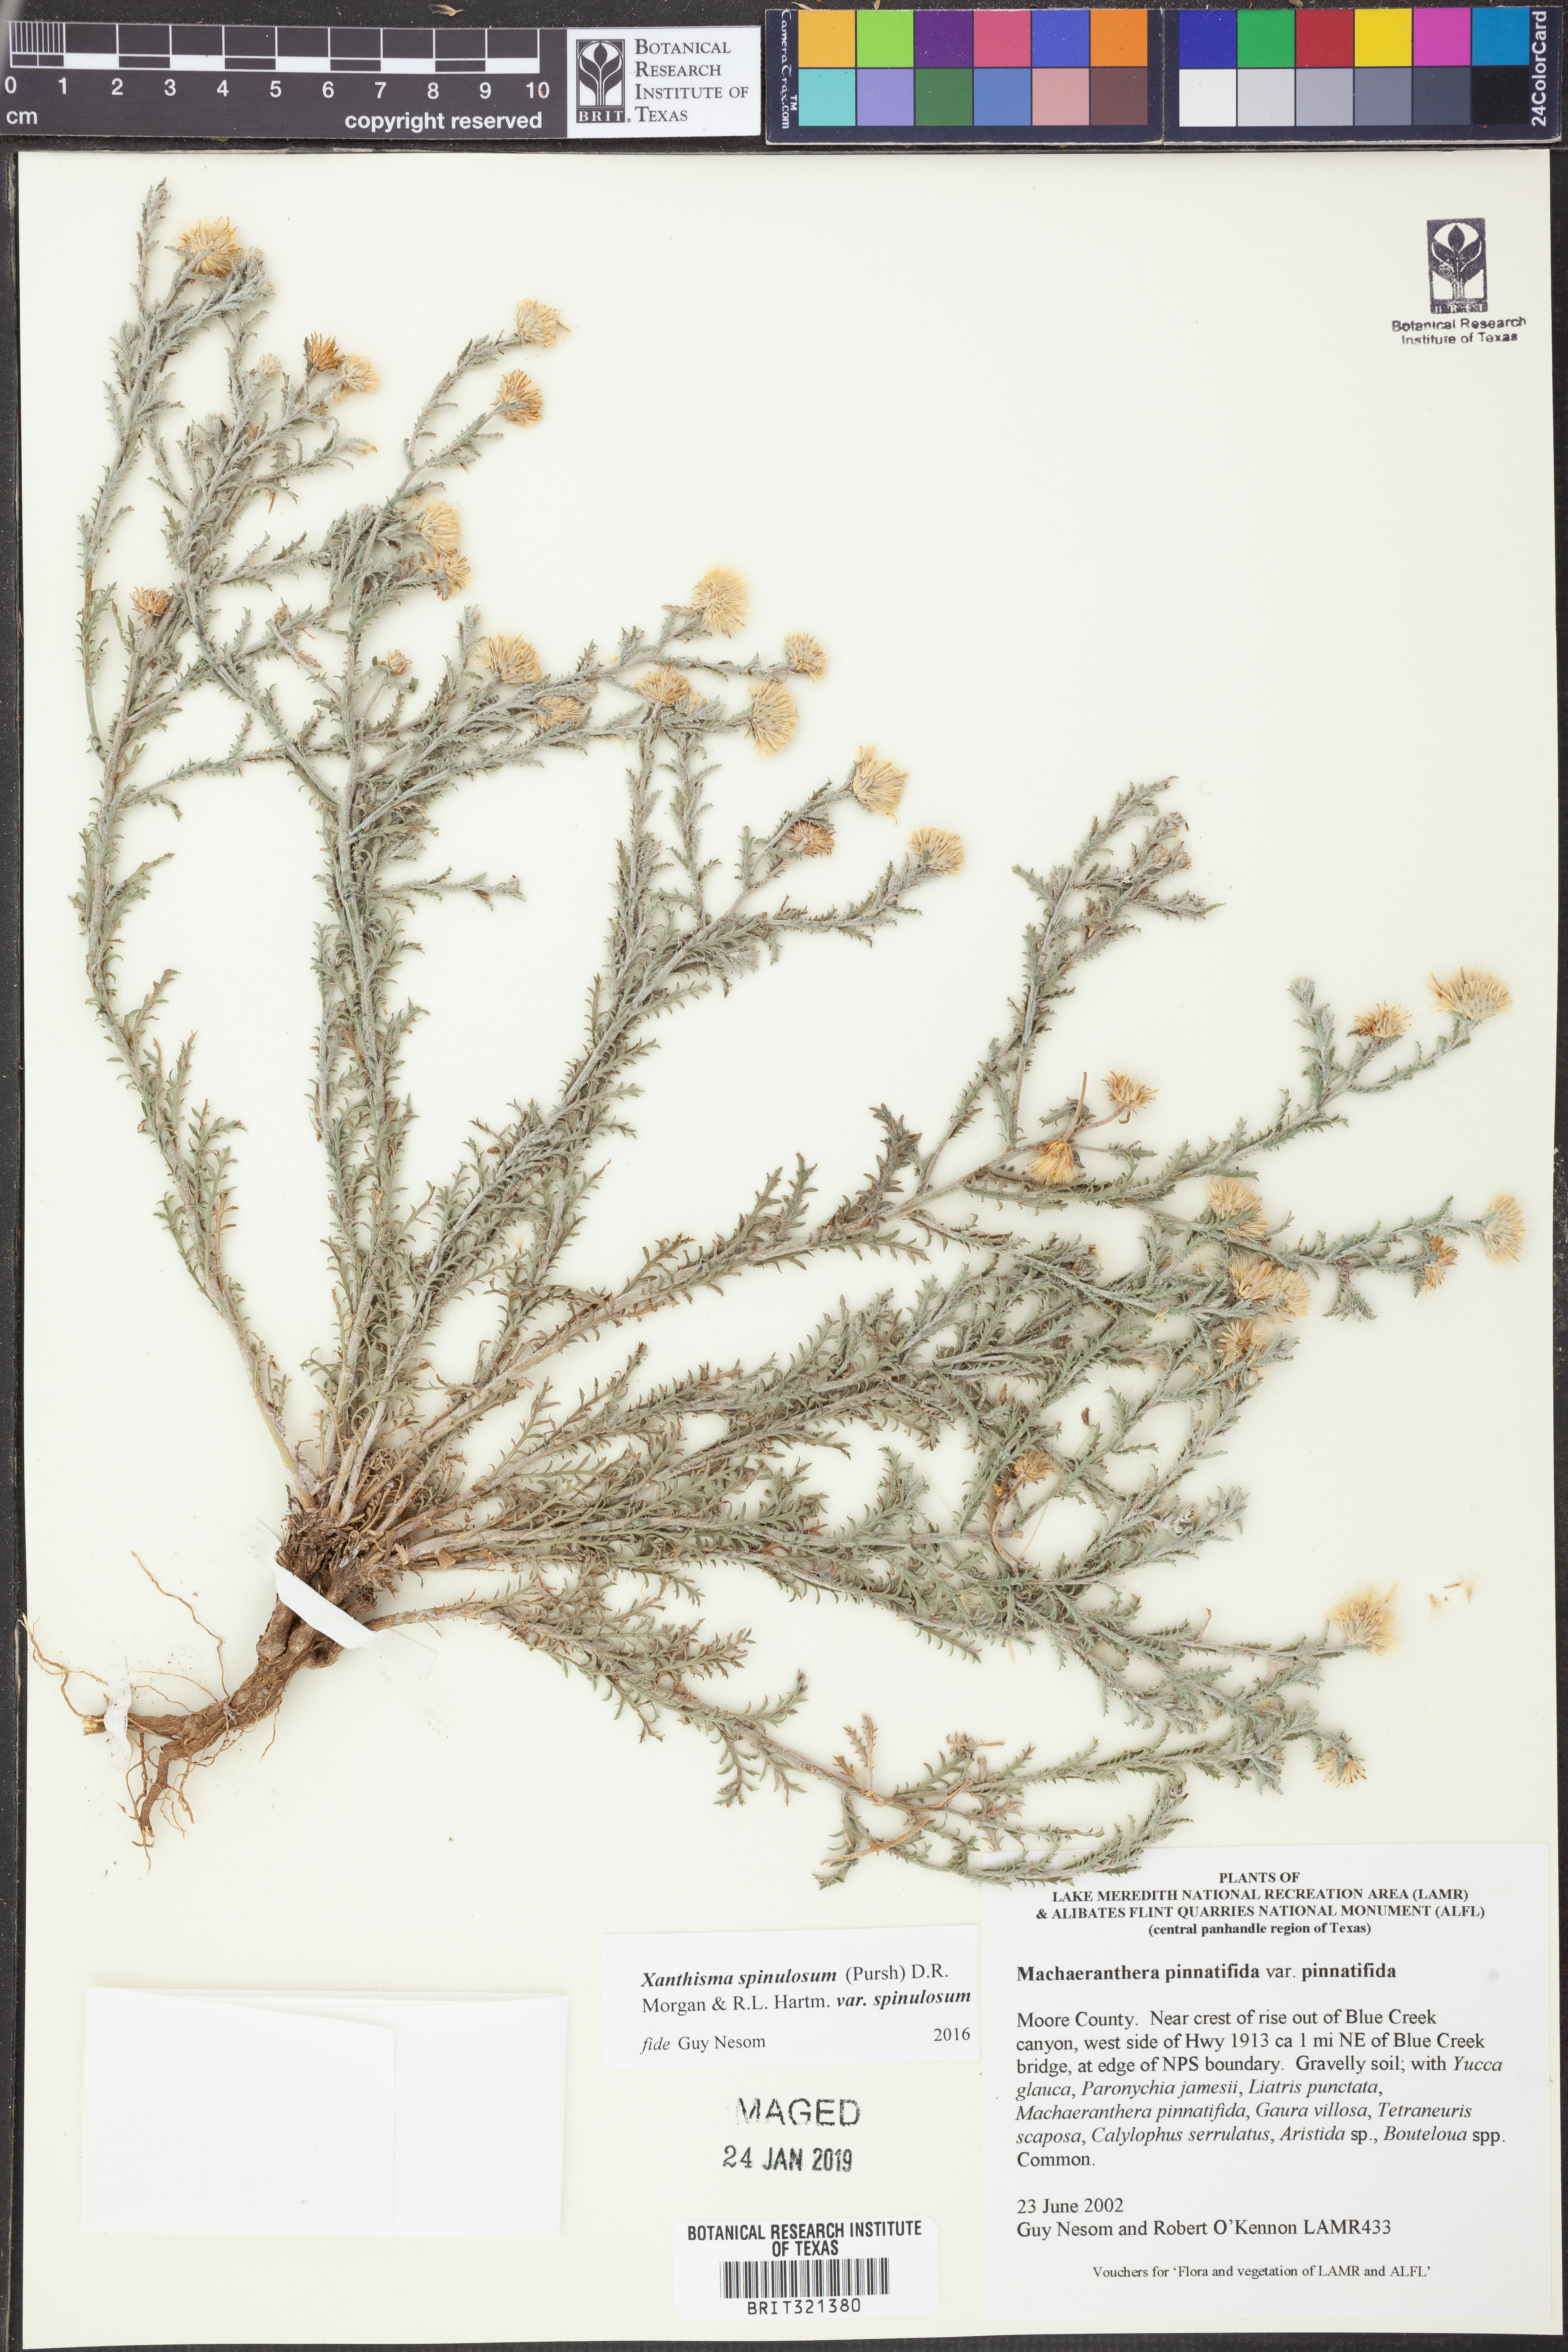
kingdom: Plantae
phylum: Tracheophyta
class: Magnoliopsida
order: Asterales
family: Asteraceae
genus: Xanthisma
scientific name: Xanthisma spinulosum
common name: Spiny goldenweed
